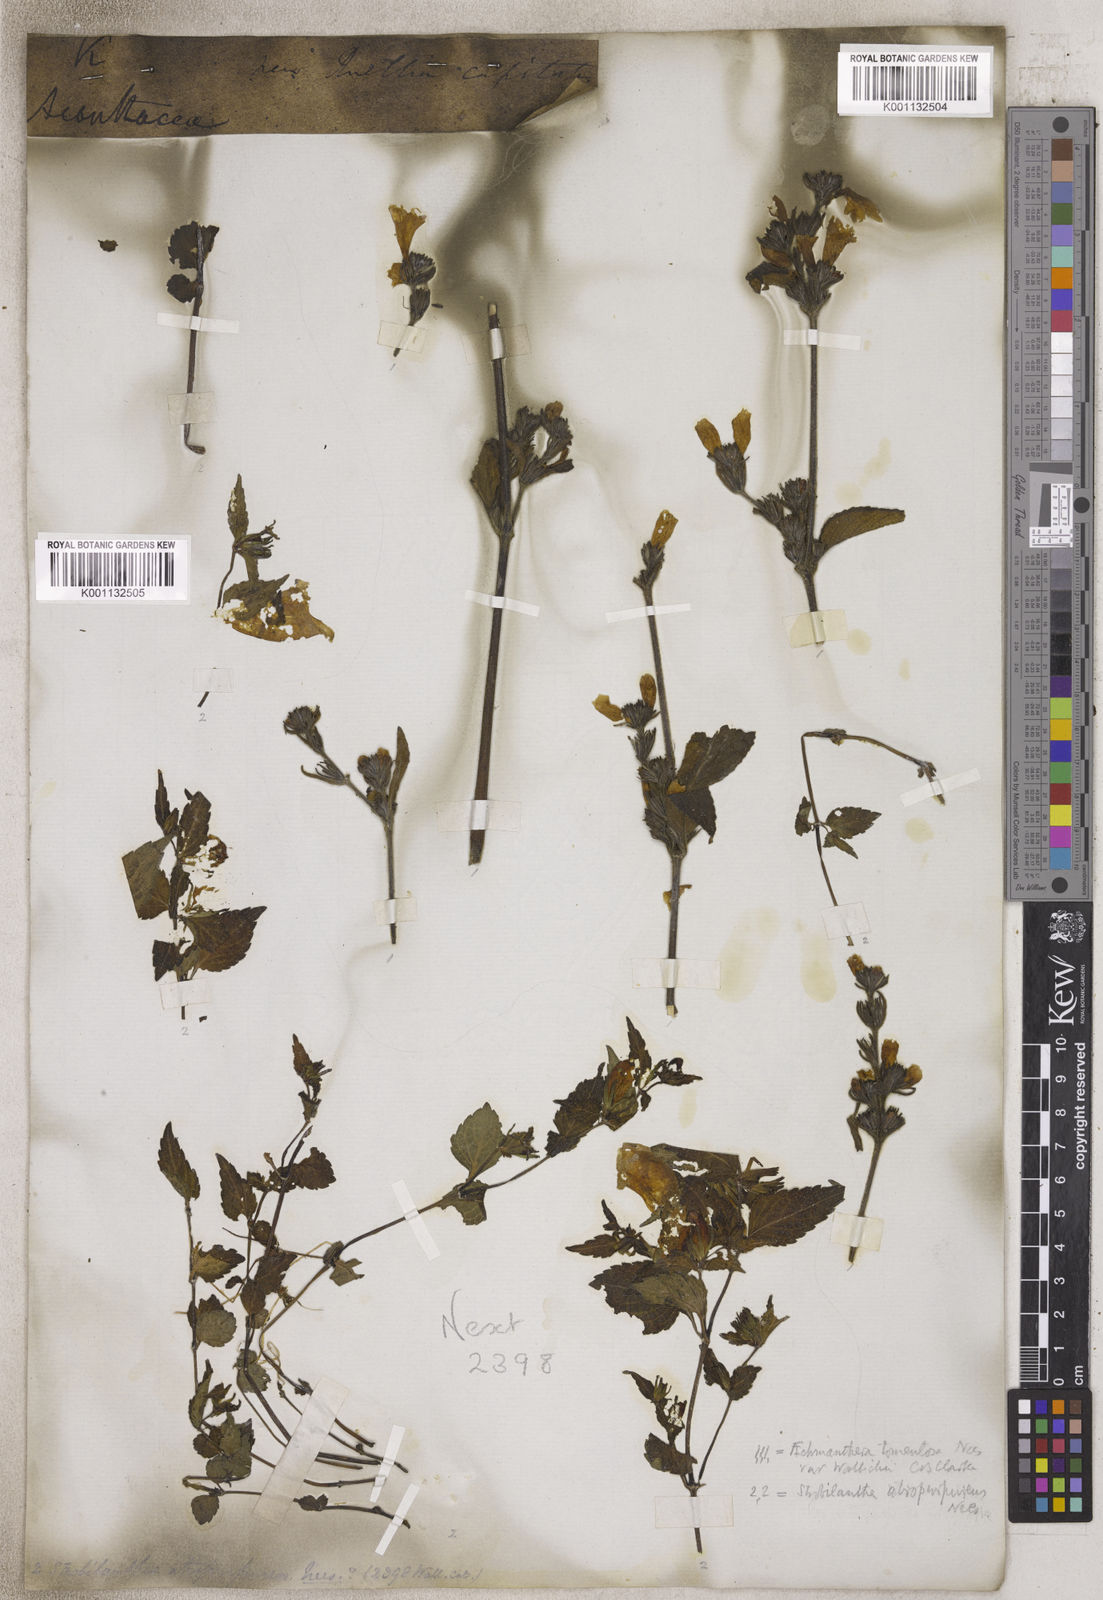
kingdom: Plantae
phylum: Tracheophyta
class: Magnoliopsida
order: Lamiales
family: Acanthaceae
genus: Strobilanthes
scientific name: Strobilanthes
